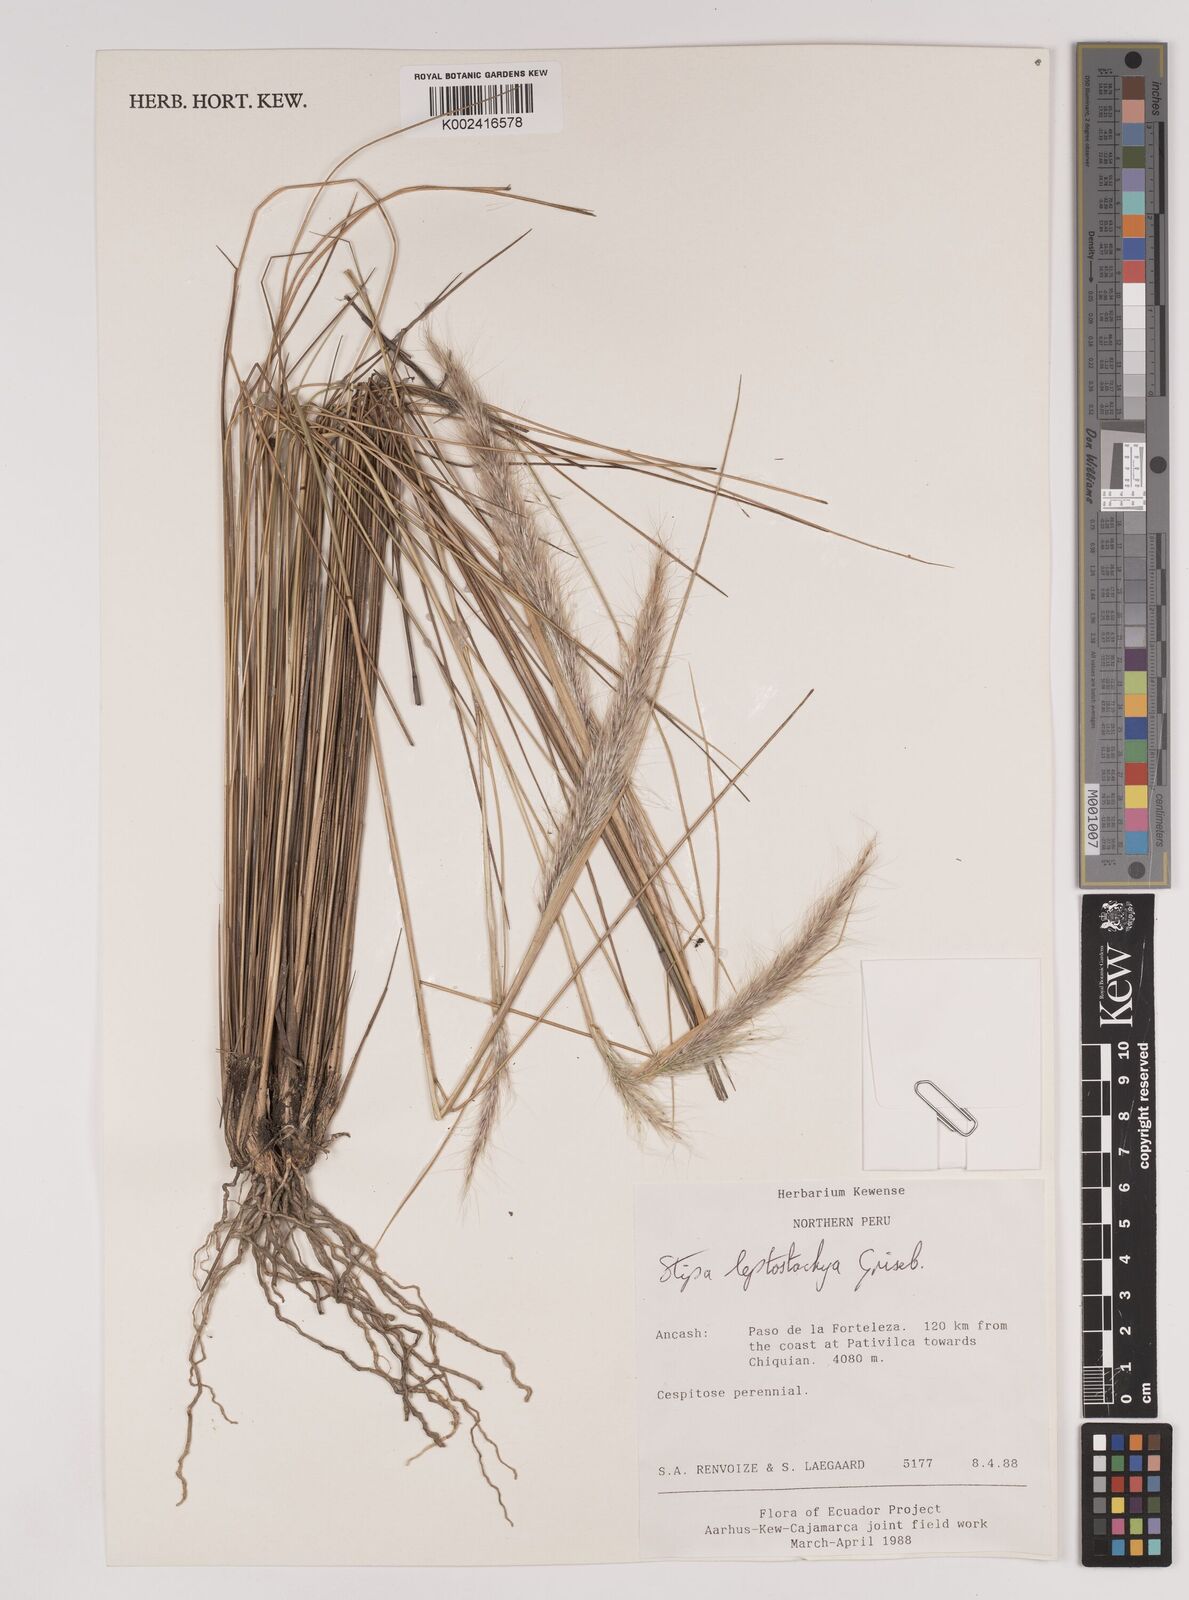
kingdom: Plantae
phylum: Tracheophyta
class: Liliopsida
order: Poales
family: Poaceae
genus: Jarava
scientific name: Jarava leptostachya
